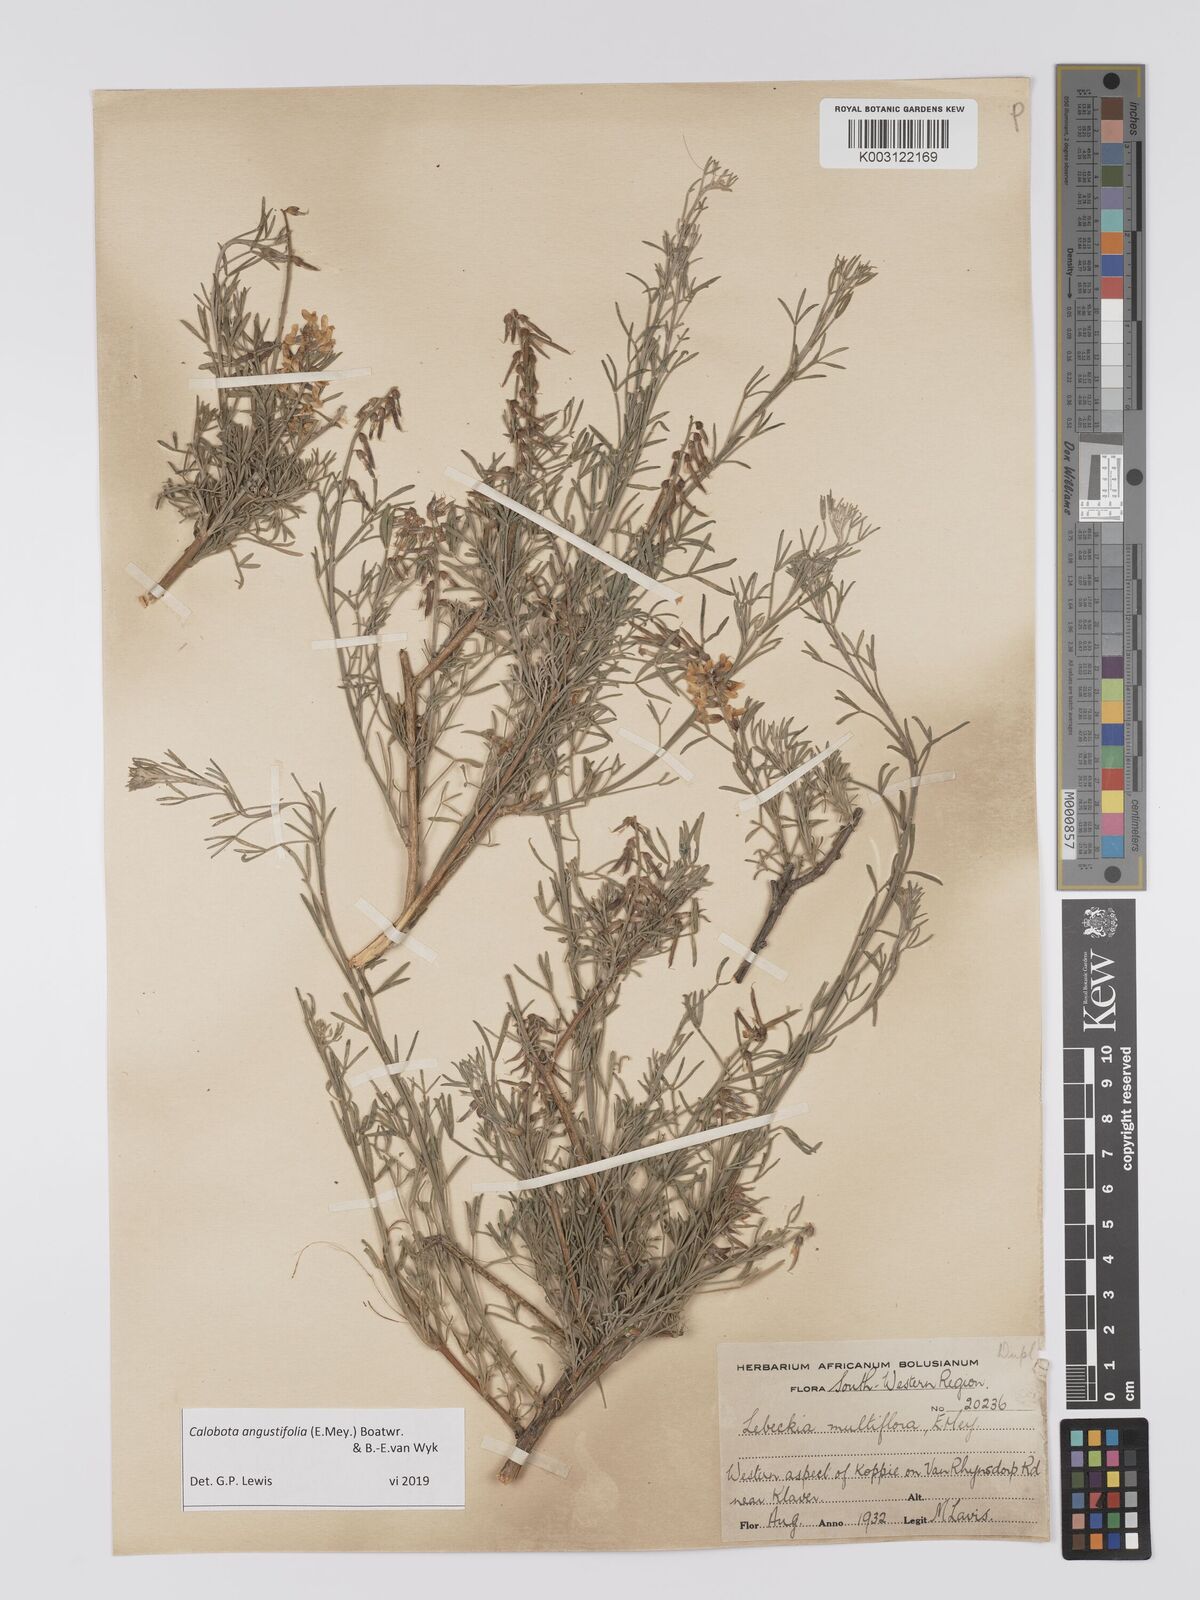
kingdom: Plantae
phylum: Tracheophyta
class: Magnoliopsida
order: Fabales
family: Fabaceae
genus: Calobota
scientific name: Calobota angustifolia
